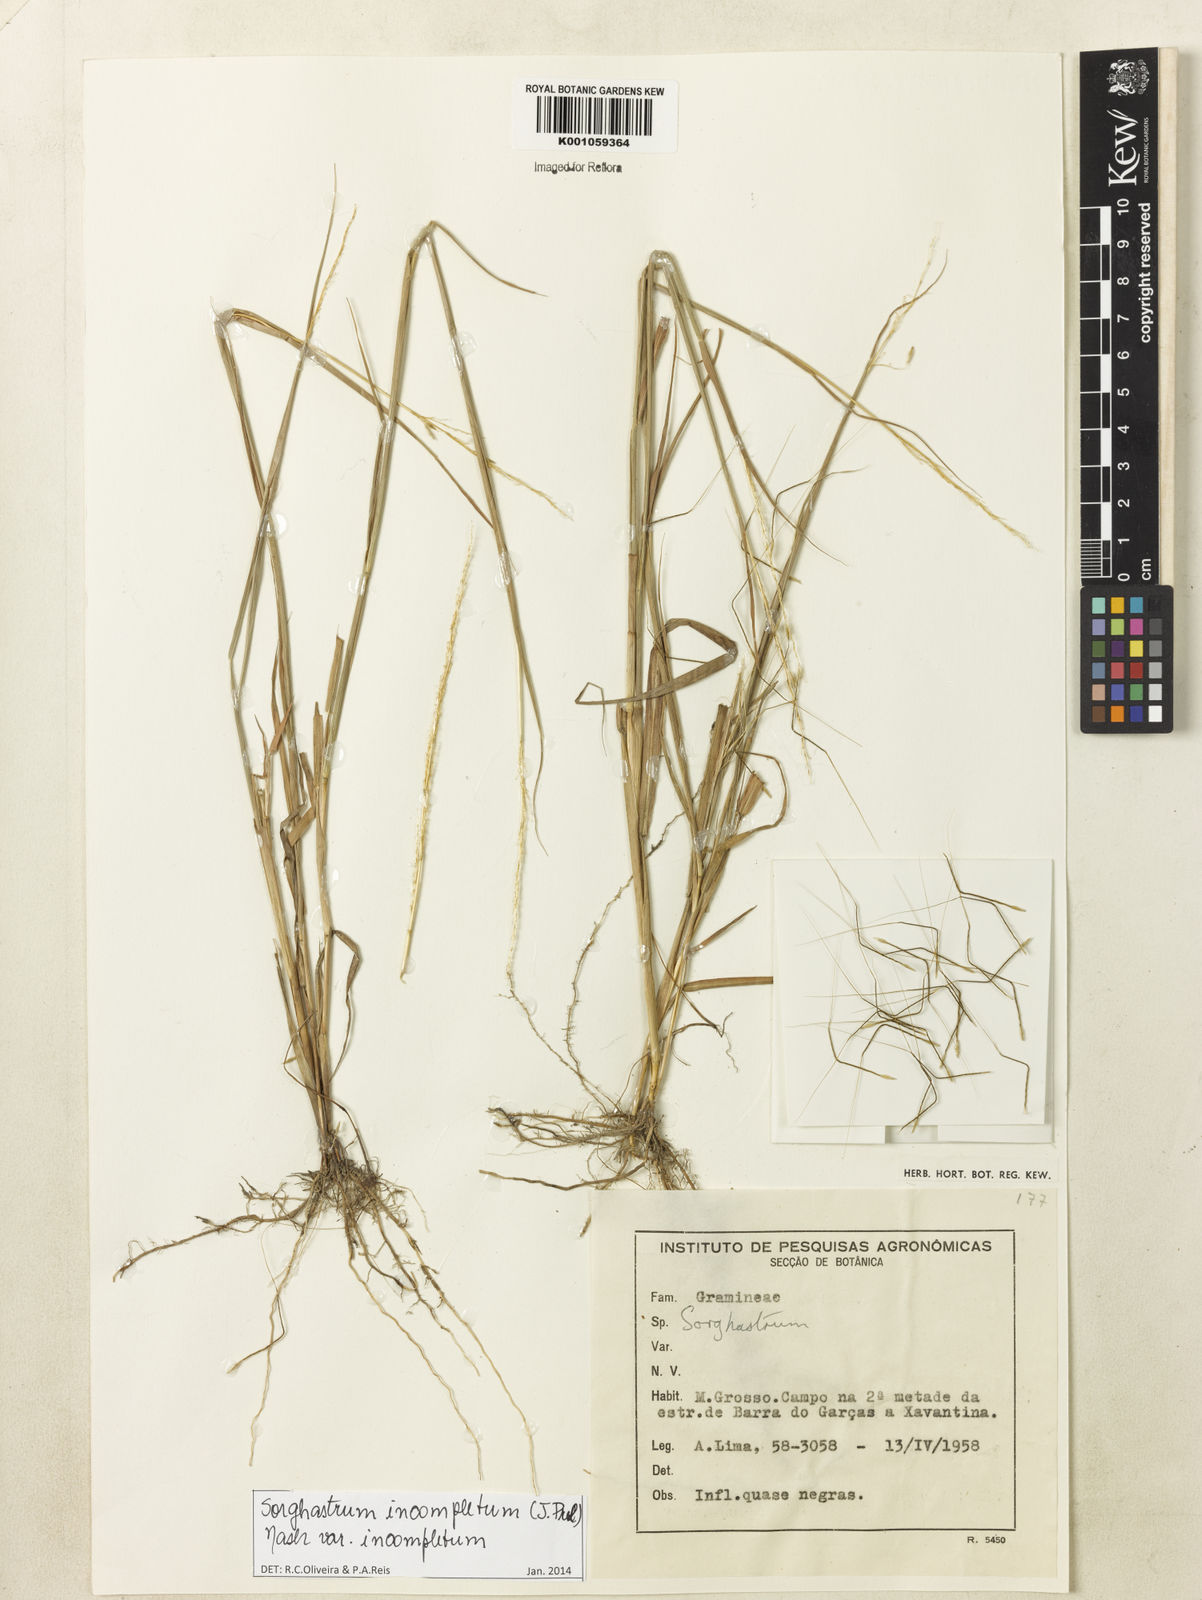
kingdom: Plantae
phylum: Tracheophyta
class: Liliopsida
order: Poales
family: Poaceae
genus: Sorghastrum
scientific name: Sorghastrum incompletum
